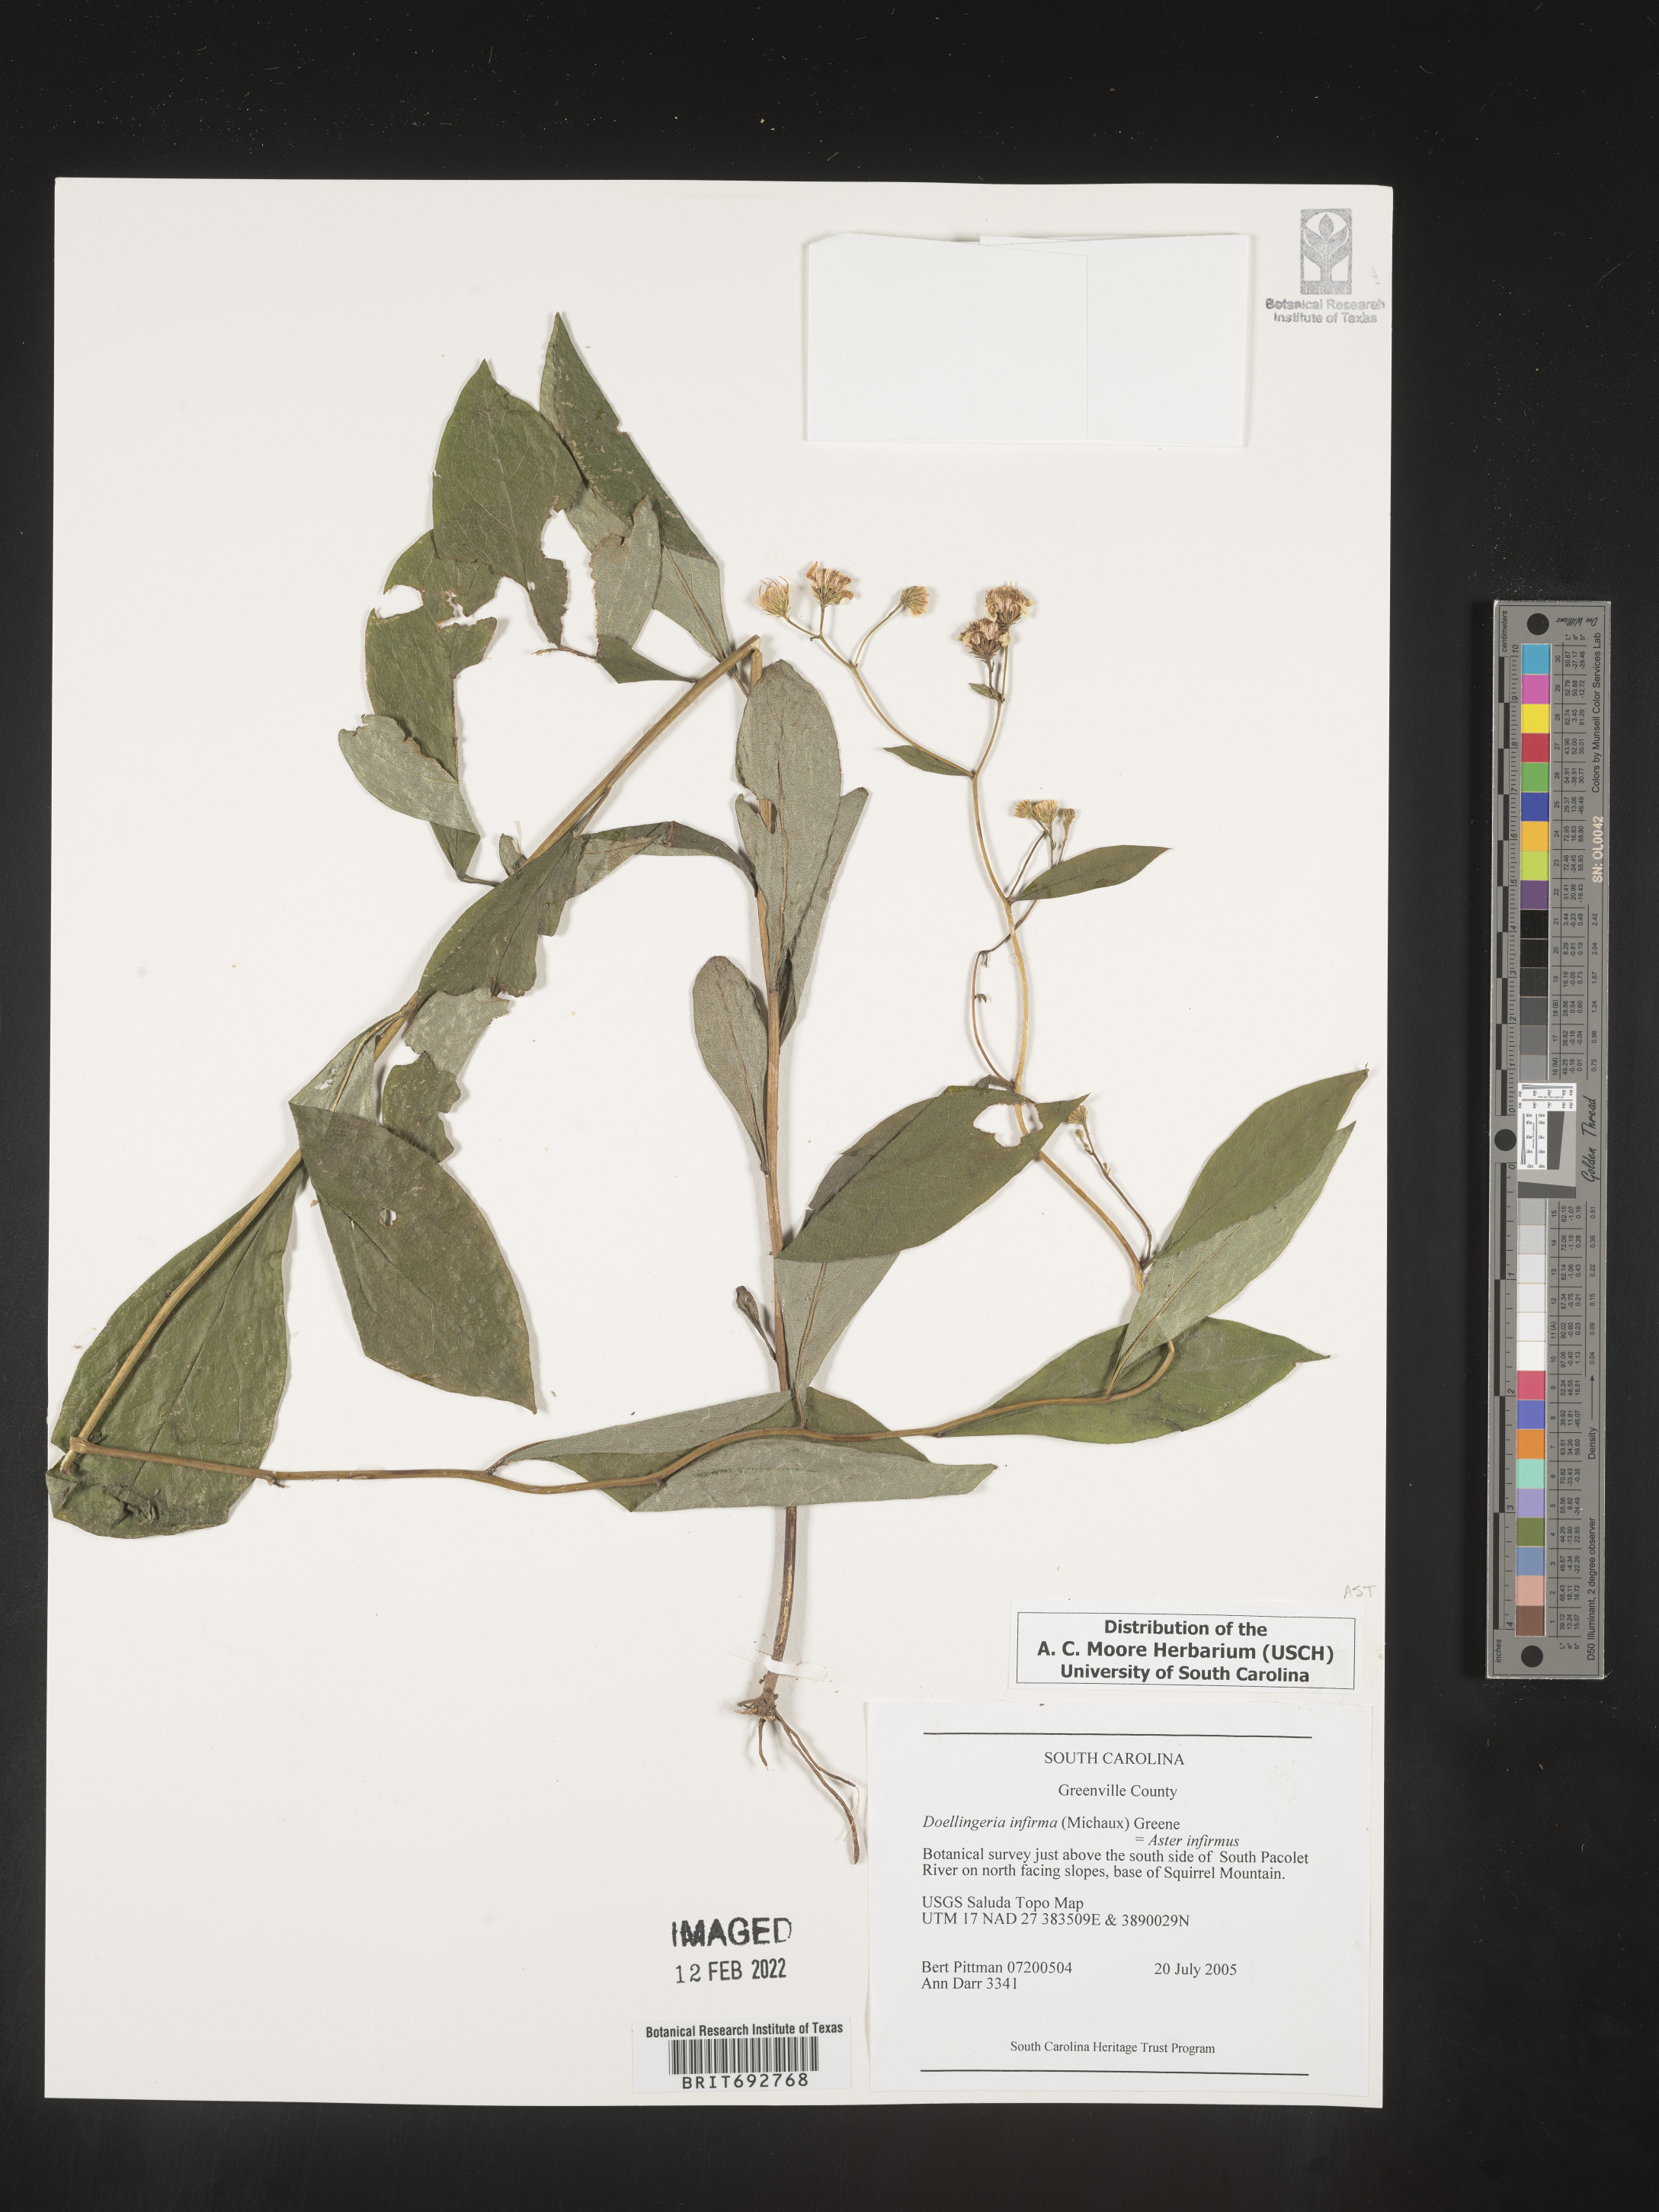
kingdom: Plantae
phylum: Tracheophyta
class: Magnoliopsida
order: Asterales
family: Asteraceae
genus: Doellingeria
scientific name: Doellingeria infirma
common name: Appalachian flat-top aster
